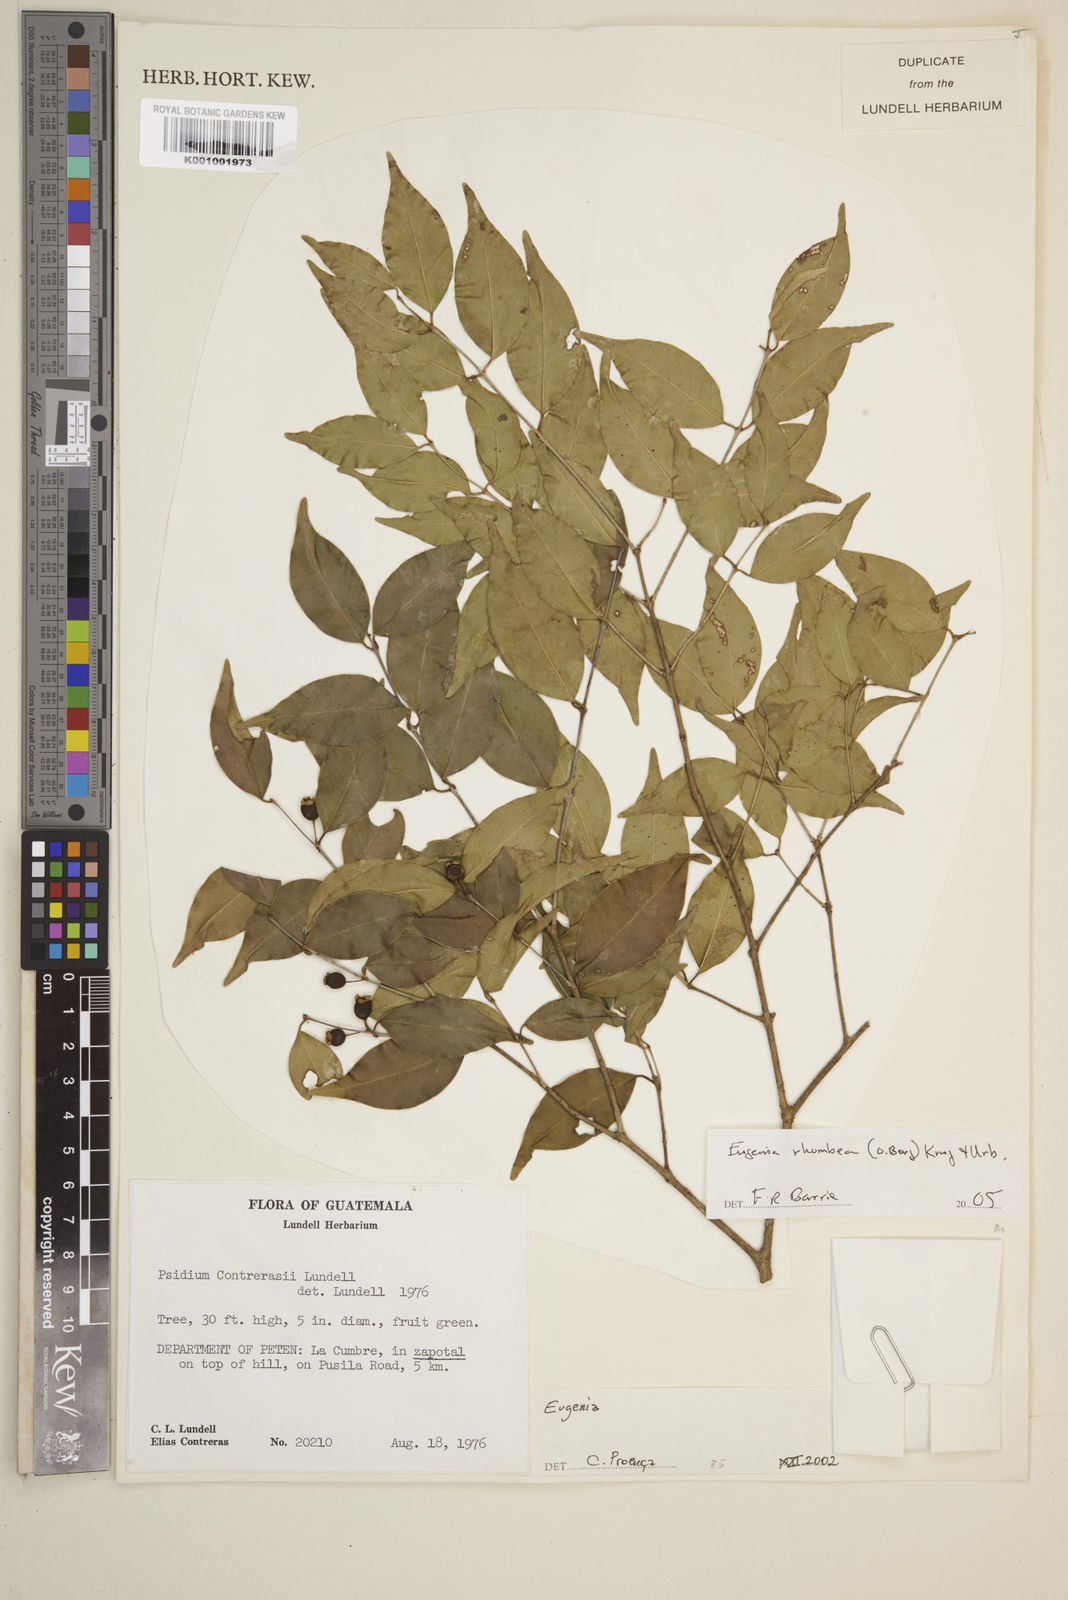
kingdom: Plantae
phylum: Tracheophyta
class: Magnoliopsida
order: Myrtales
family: Myrtaceae
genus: Eugenia
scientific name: Eugenia rhombea
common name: Pigeon berry
